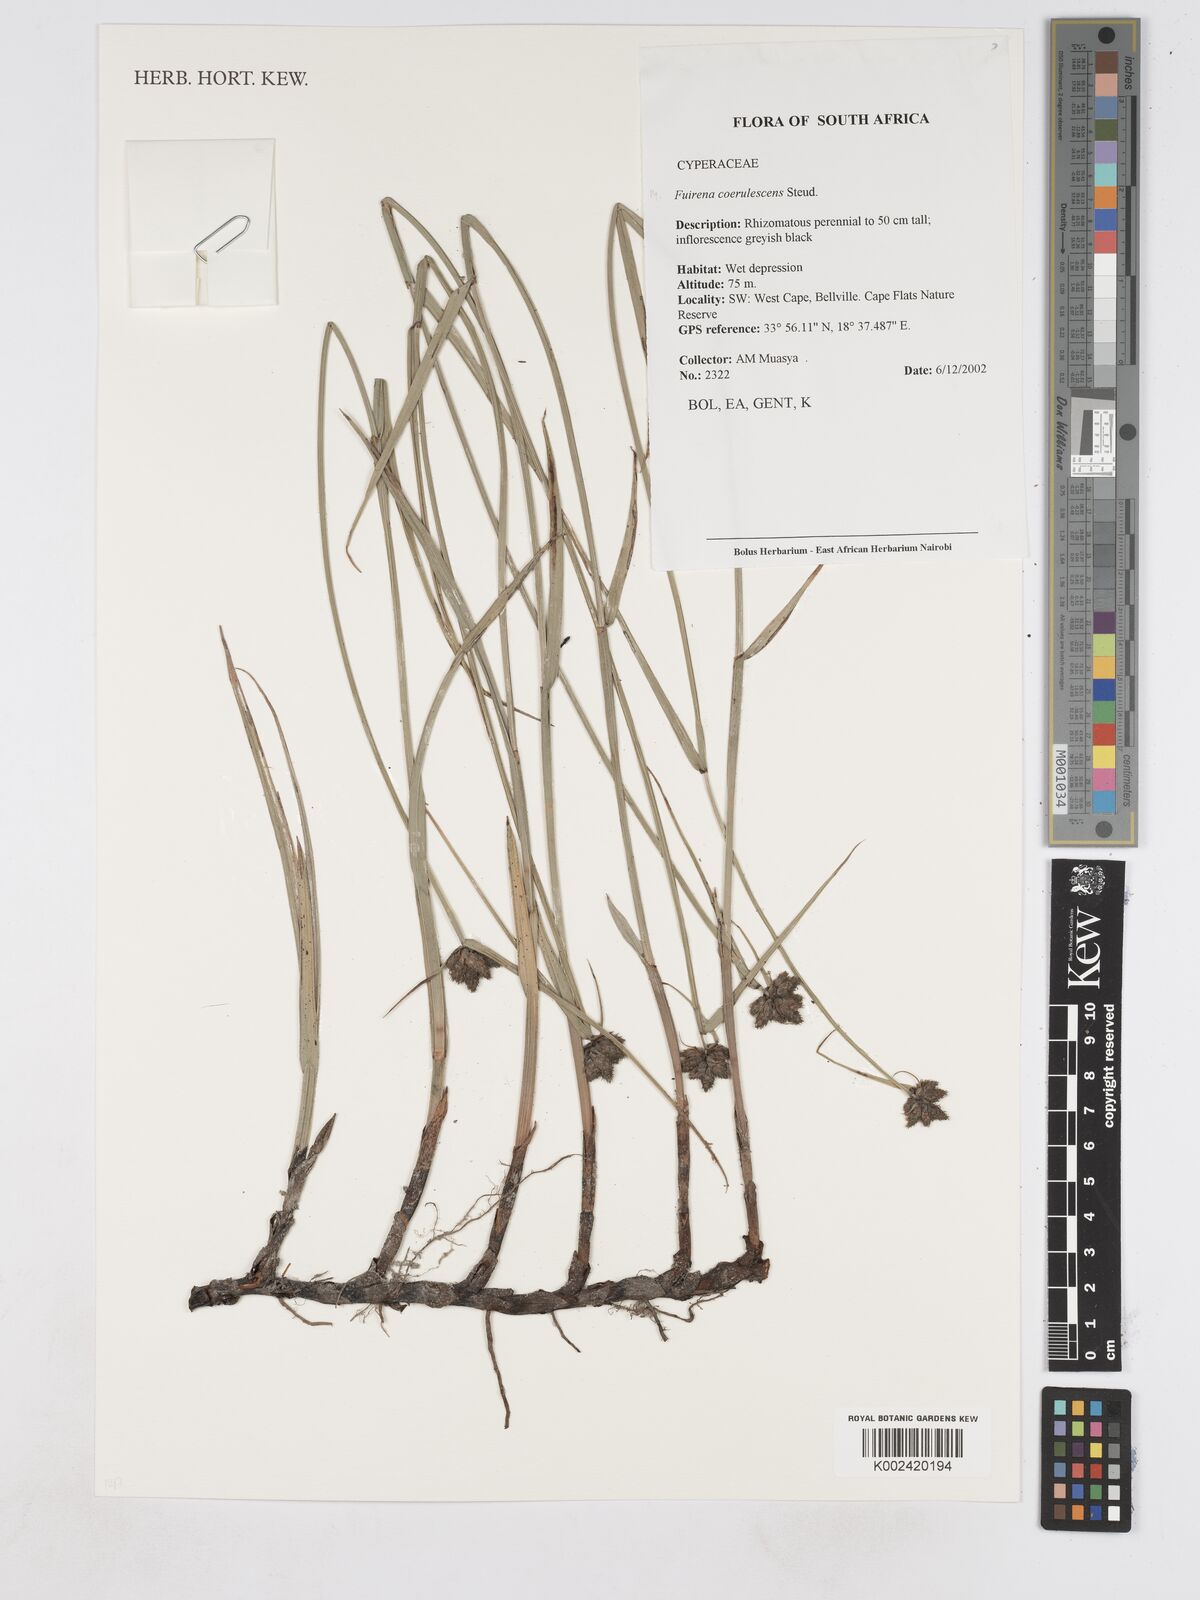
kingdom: Plantae
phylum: Tracheophyta
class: Liliopsida
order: Poales
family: Cyperaceae
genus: Fuirena
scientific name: Fuirena coerulescens
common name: Blue umbrella-sedge
